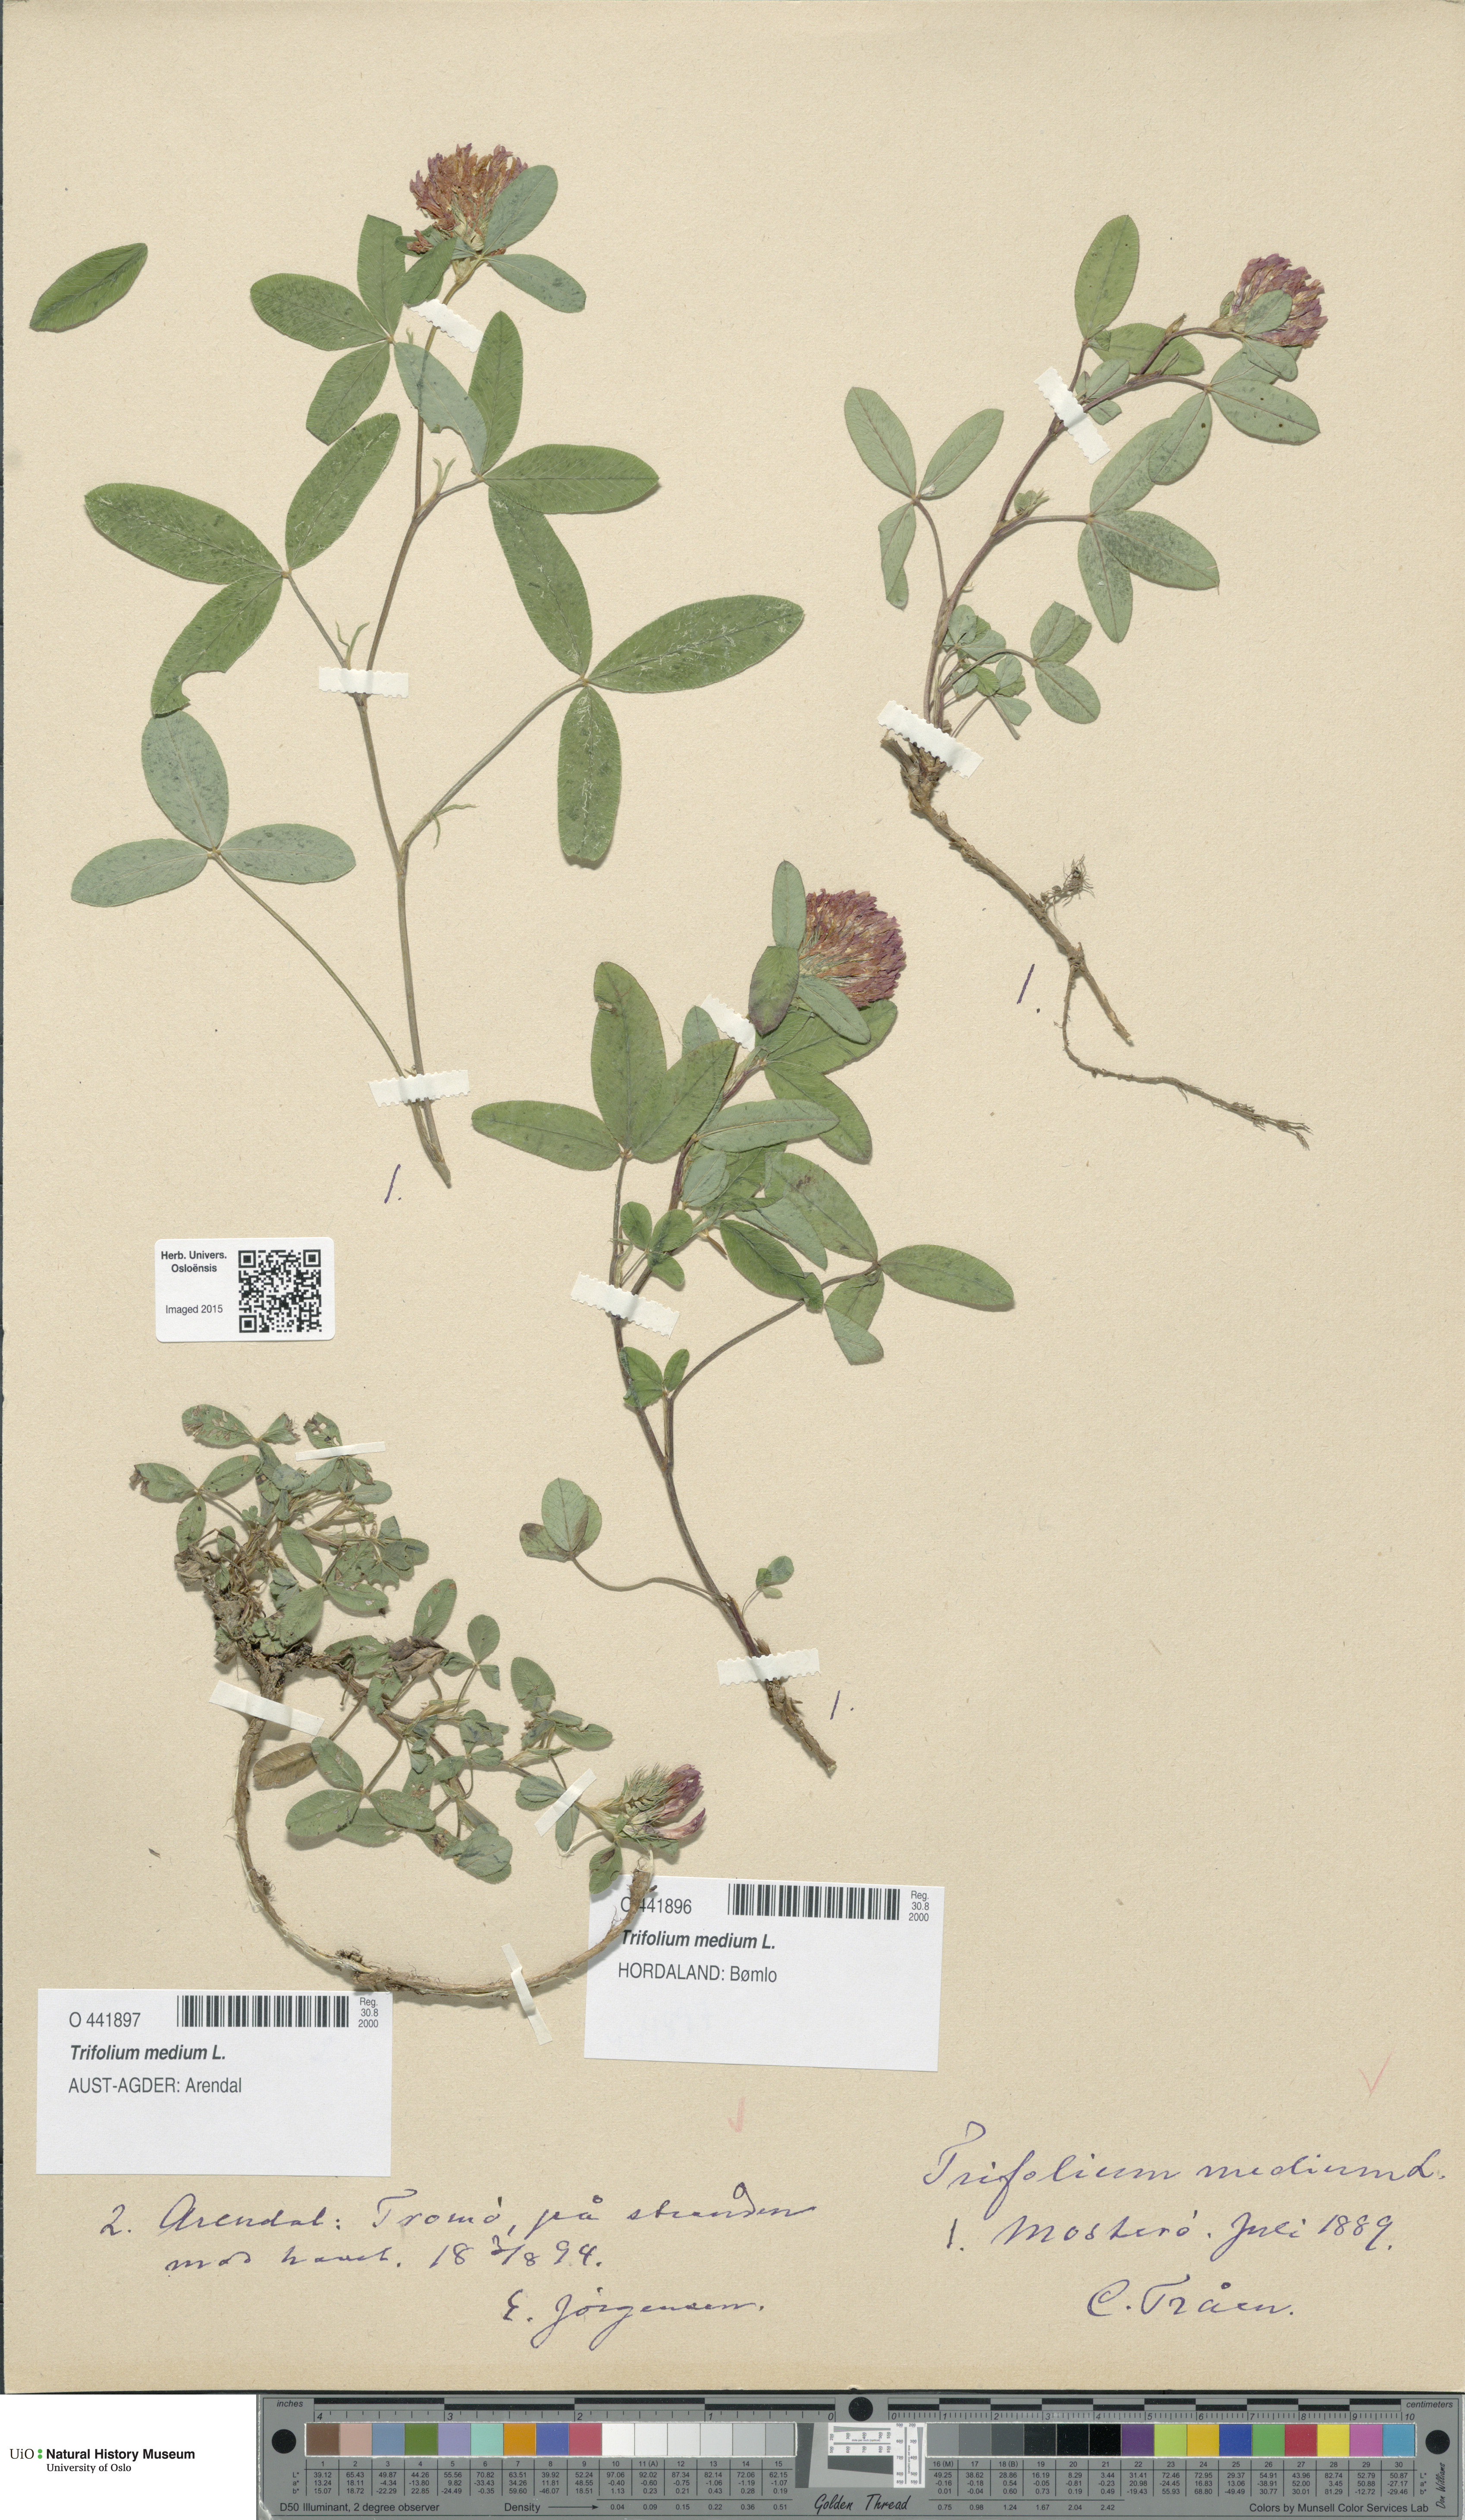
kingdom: Plantae
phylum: Tracheophyta
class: Magnoliopsida
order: Fabales
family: Fabaceae
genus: Trifolium
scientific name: Trifolium medium
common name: Zigzag clover
